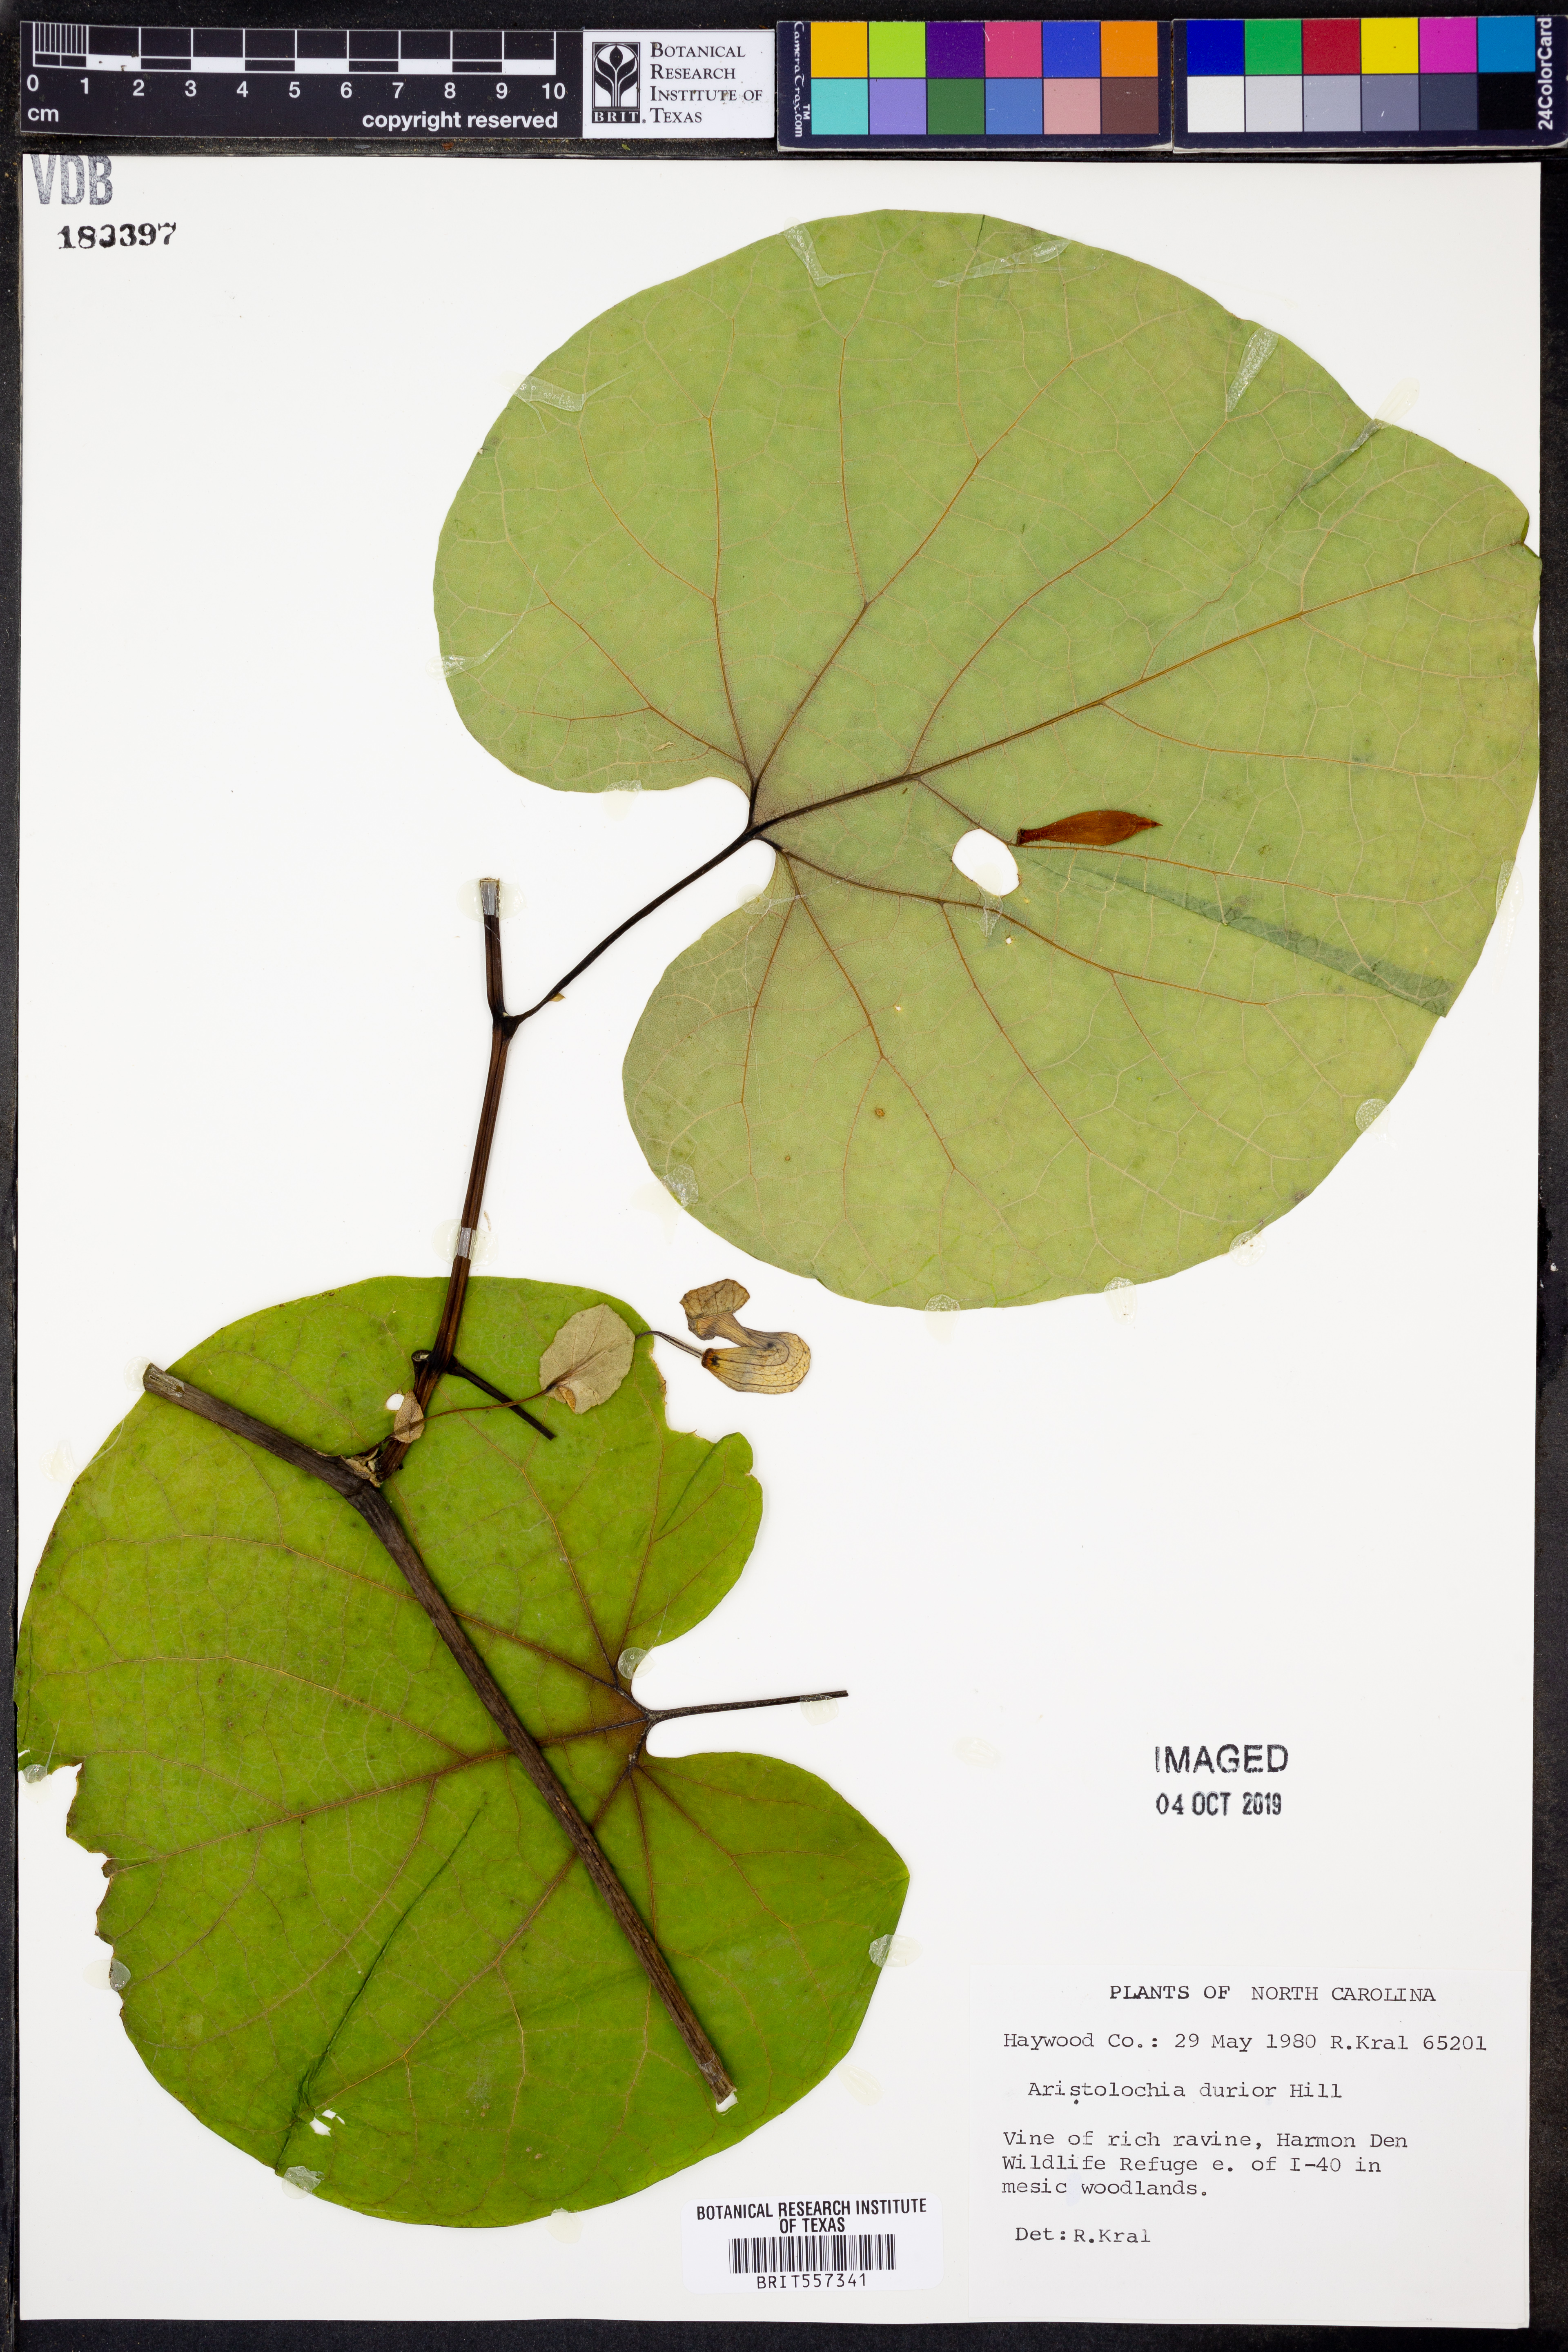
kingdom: Plantae
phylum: Tracheophyta
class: Magnoliopsida
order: Lamiales
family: Bignoniaceae
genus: Bignonia
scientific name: Bignonia capreolata
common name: Crossvine
